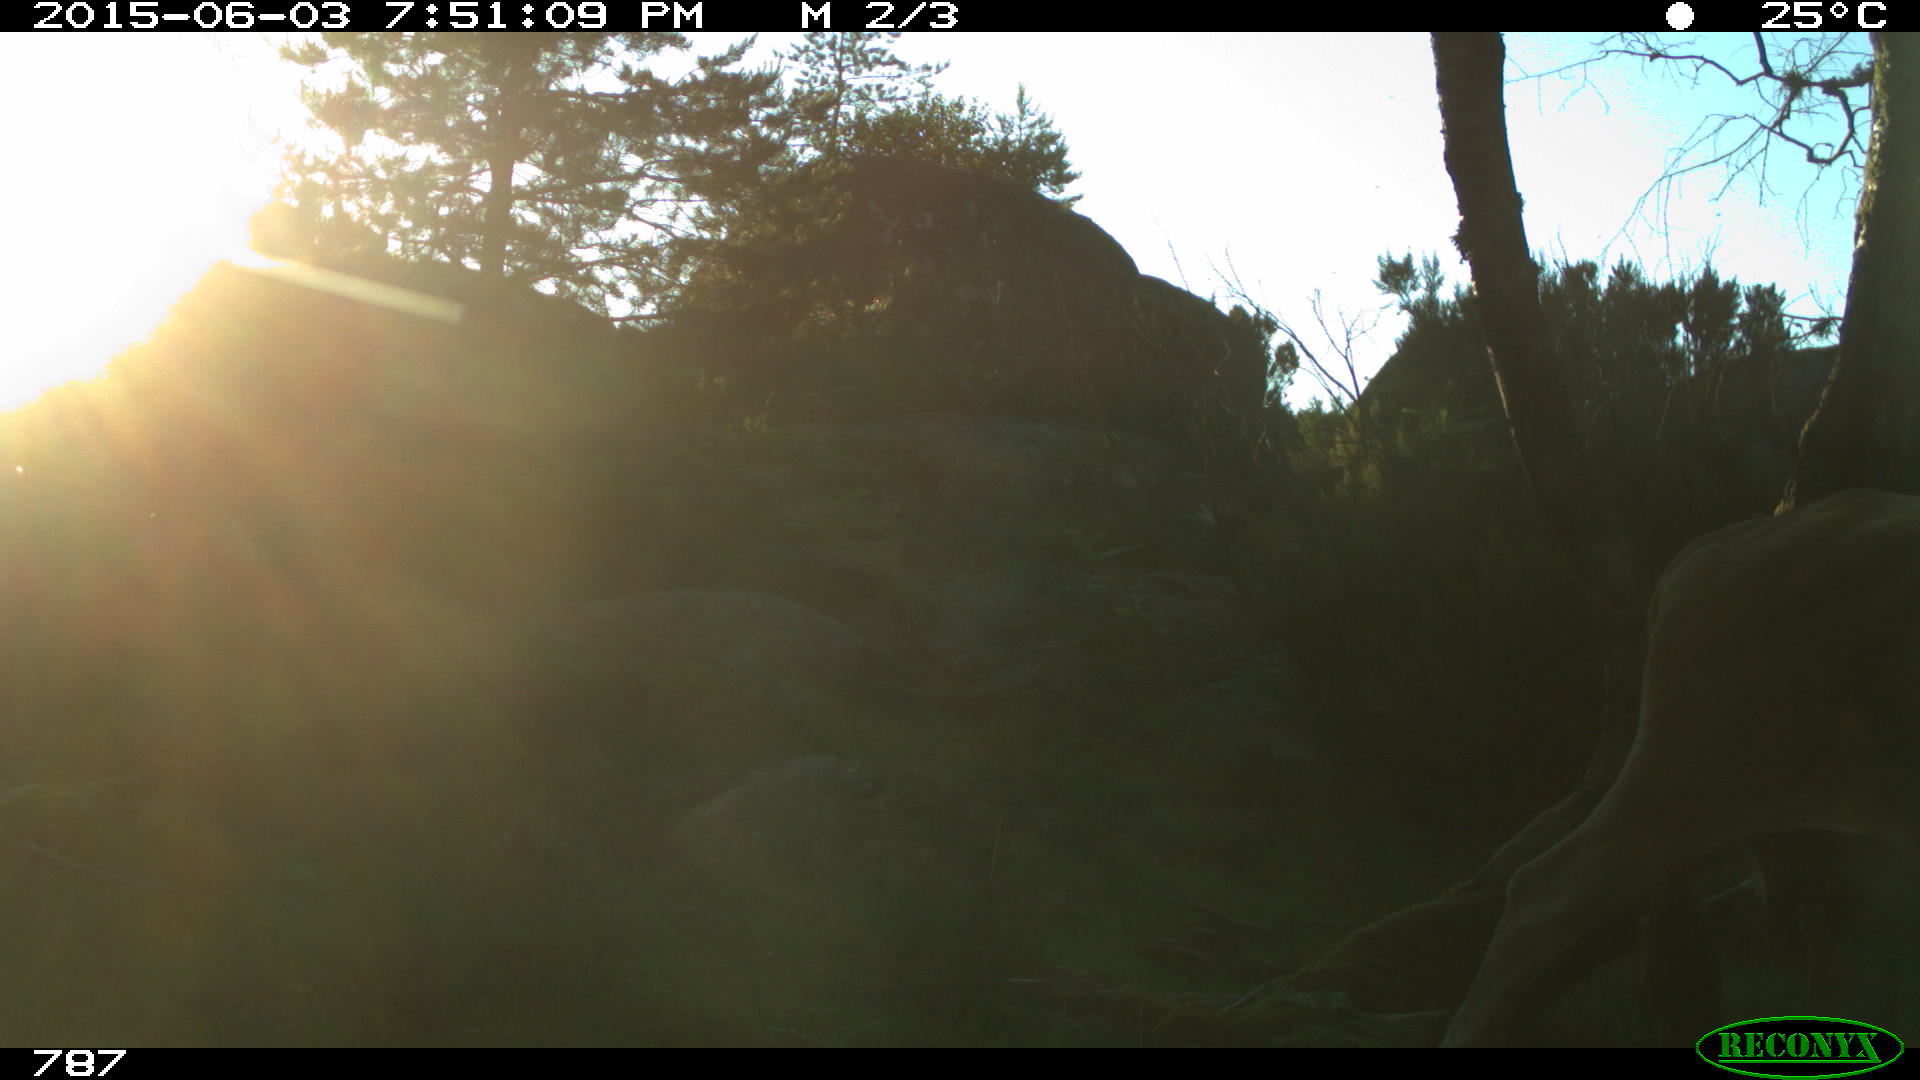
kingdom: Animalia
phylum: Chordata
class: Mammalia
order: Artiodactyla
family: Bovidae
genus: Bos
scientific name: Bos taurus
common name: Domesticated cattle
